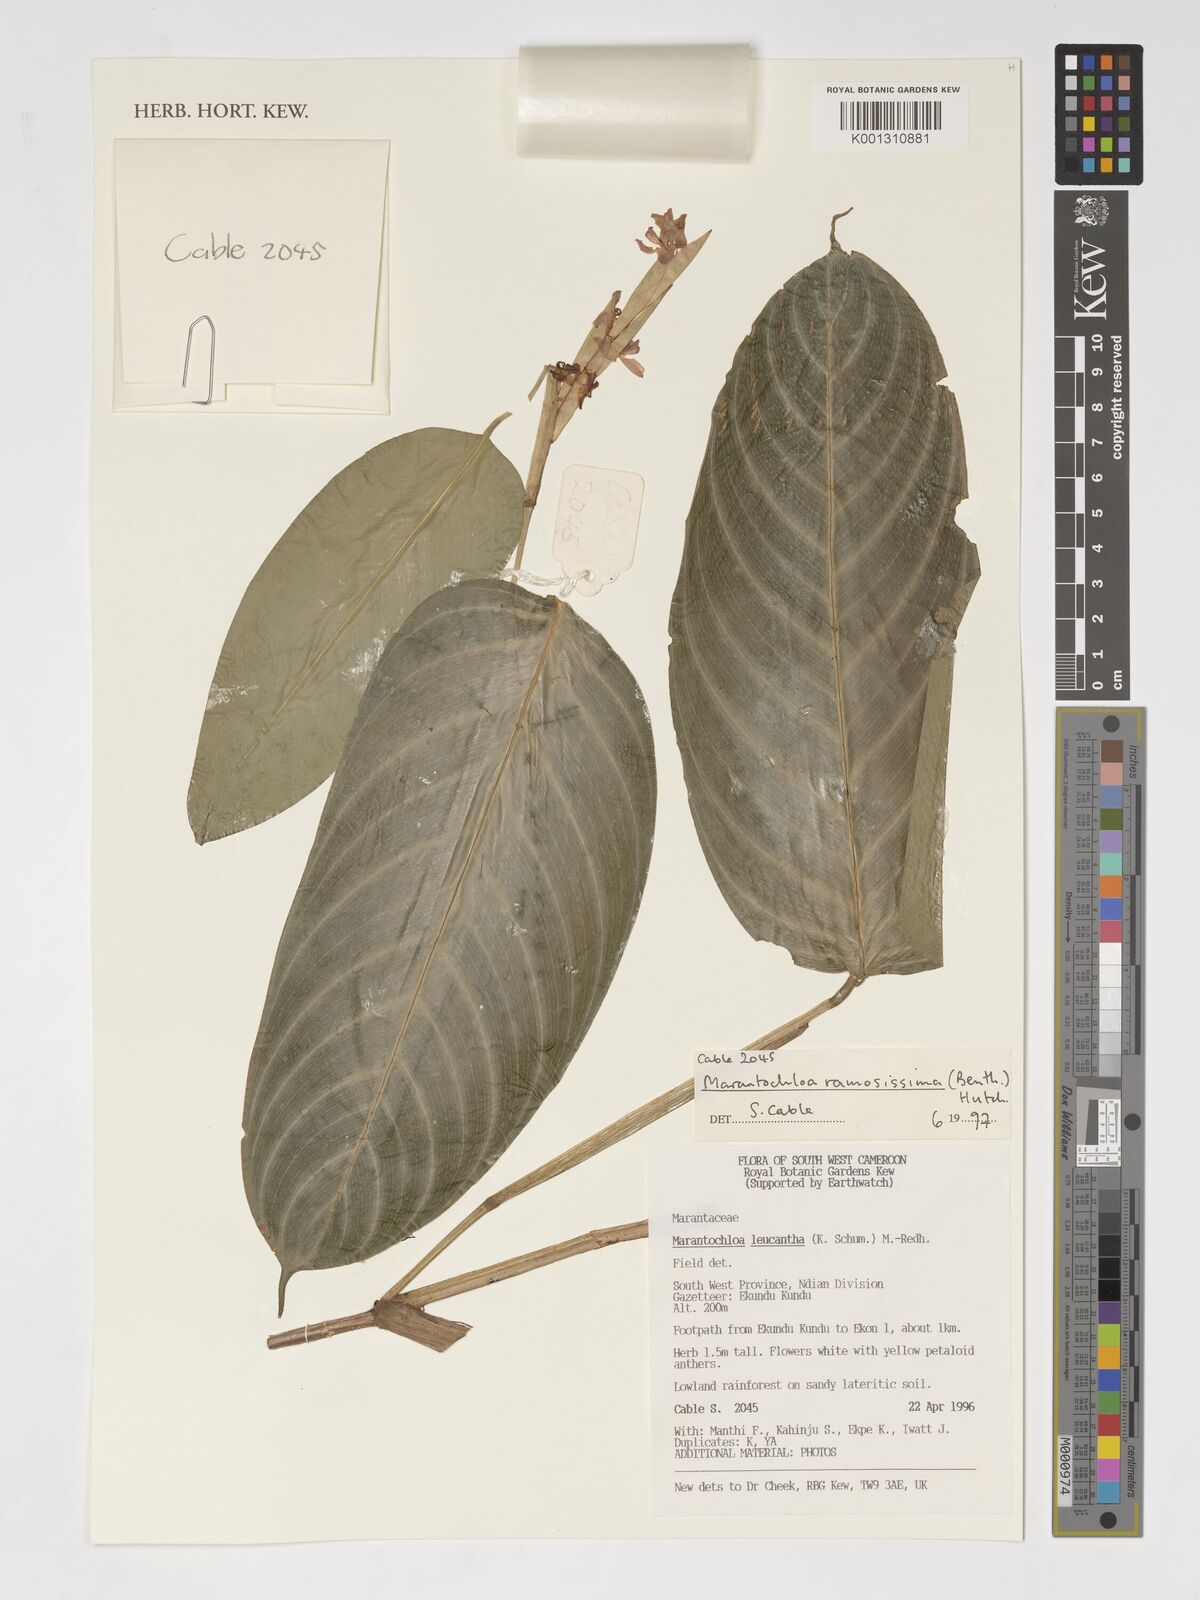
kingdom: Plantae
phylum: Tracheophyta
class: Liliopsida
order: Zingiberales
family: Marantaceae
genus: Marantochloa
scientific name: Marantochloa leucantha
